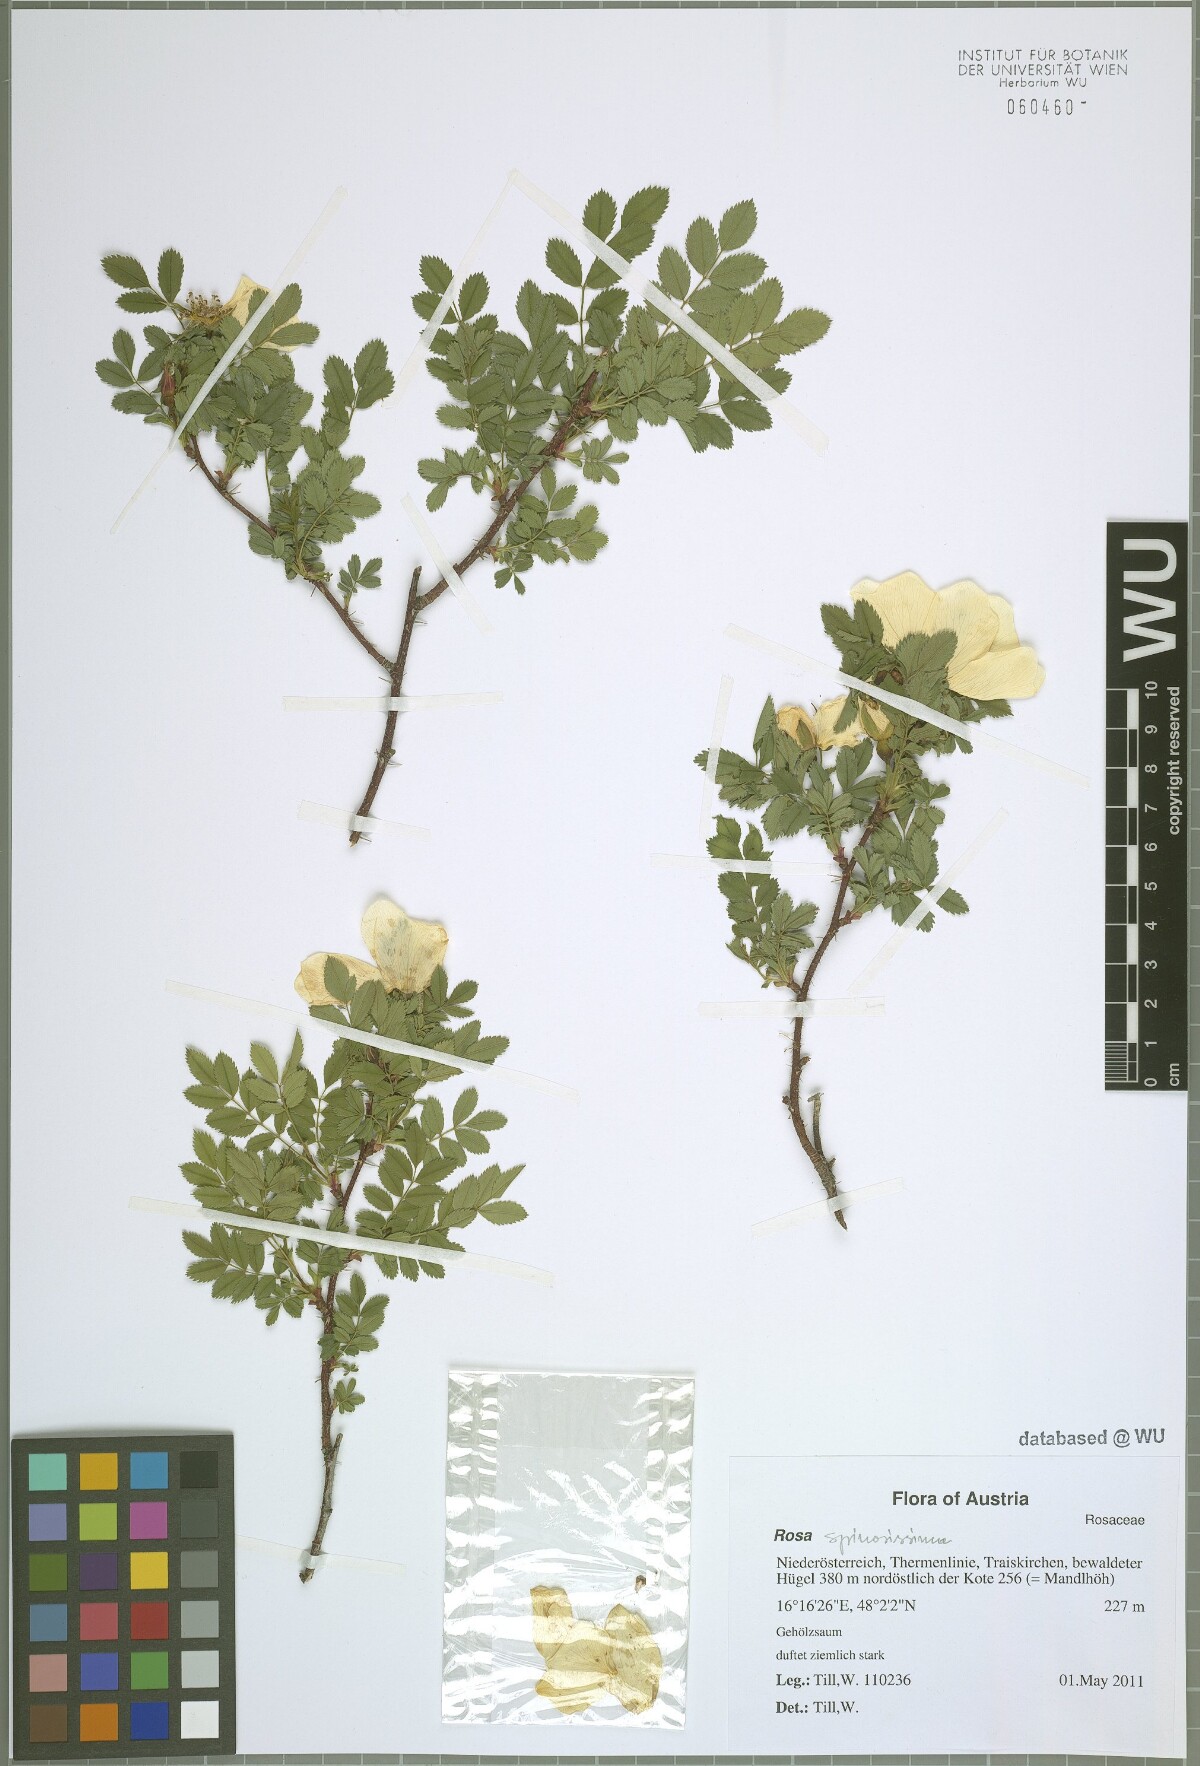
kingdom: Plantae
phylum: Tracheophyta
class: Magnoliopsida
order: Rosales
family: Rosaceae
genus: Rosa
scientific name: Rosa spinosissima
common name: Burnet rose
